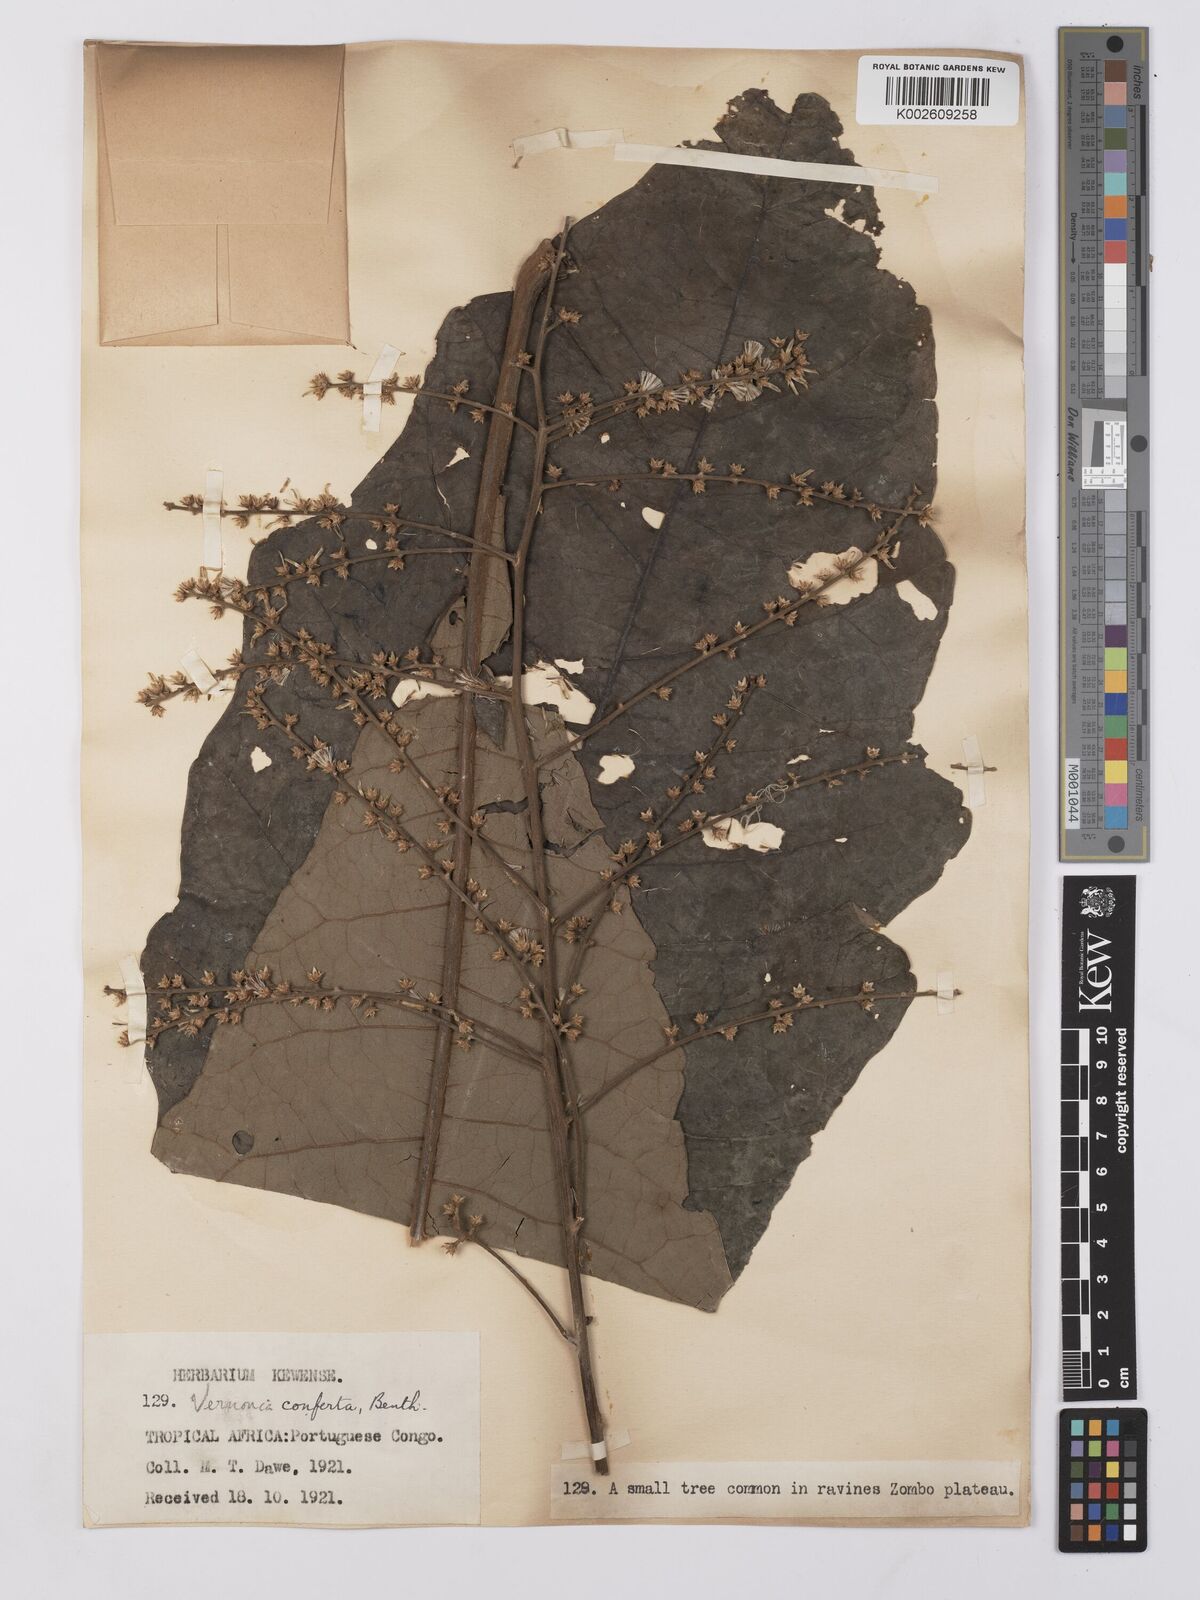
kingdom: Plantae
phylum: Tracheophyta
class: Magnoliopsida
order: Asterales
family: Asteraceae
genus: Monosis
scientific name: Monosis conferta
